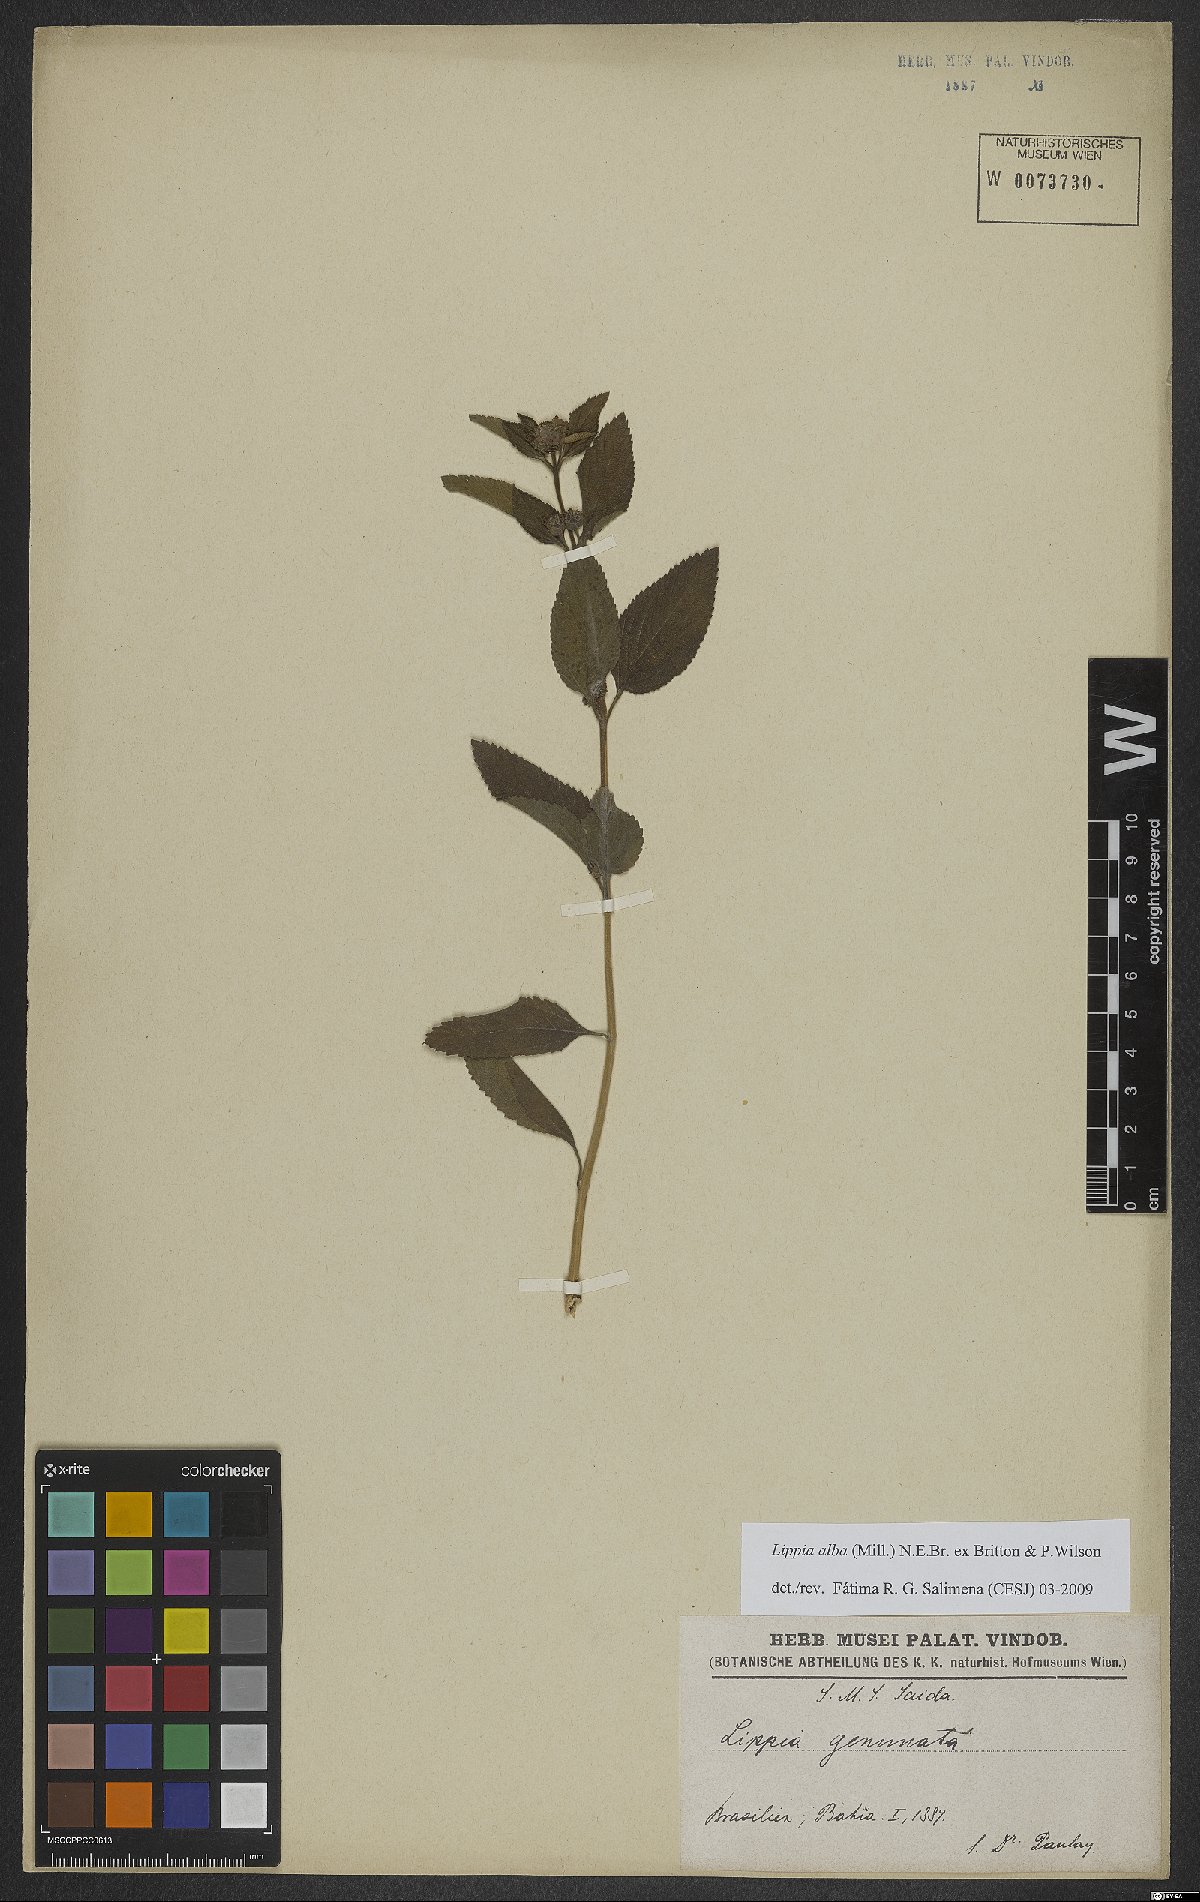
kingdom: Plantae
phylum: Tracheophyta
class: Magnoliopsida
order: Lamiales
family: Verbenaceae
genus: Lippia
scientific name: Lippia alba
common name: Bushy matgrass
